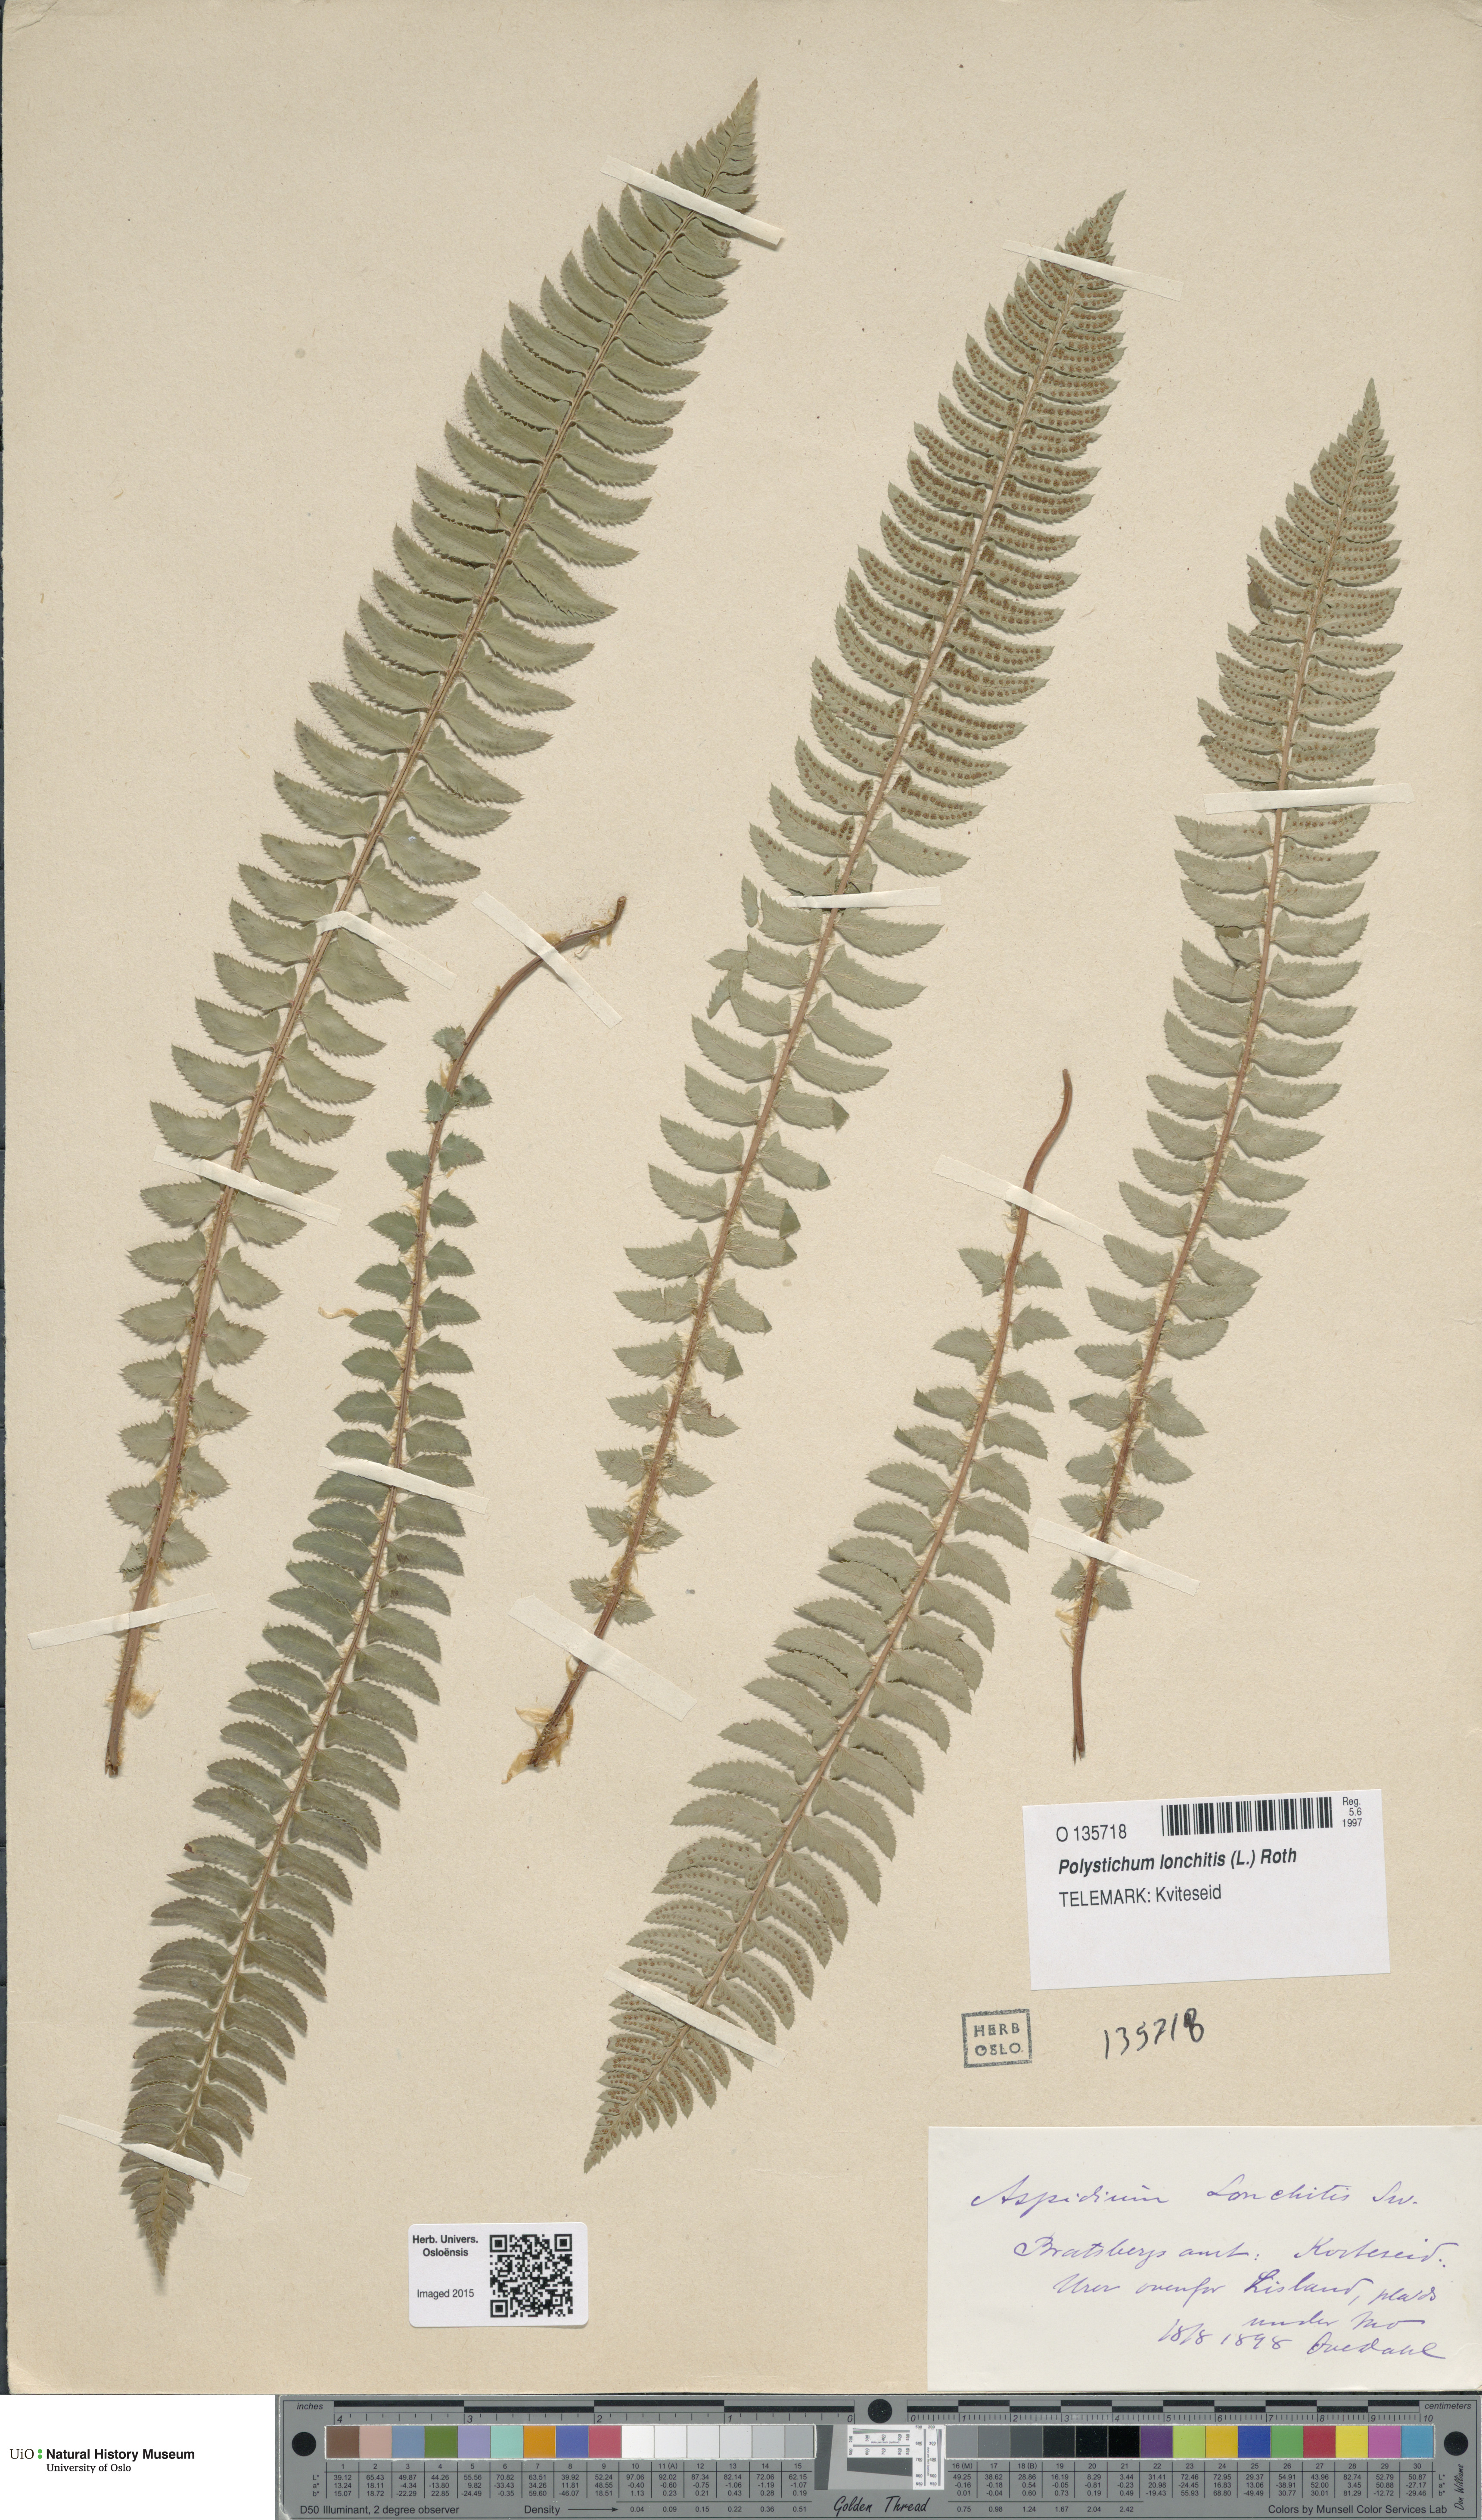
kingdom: Plantae
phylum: Tracheophyta
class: Polypodiopsida
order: Polypodiales
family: Dryopteridaceae
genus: Polystichum
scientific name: Polystichum lonchitis
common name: Holly fern
